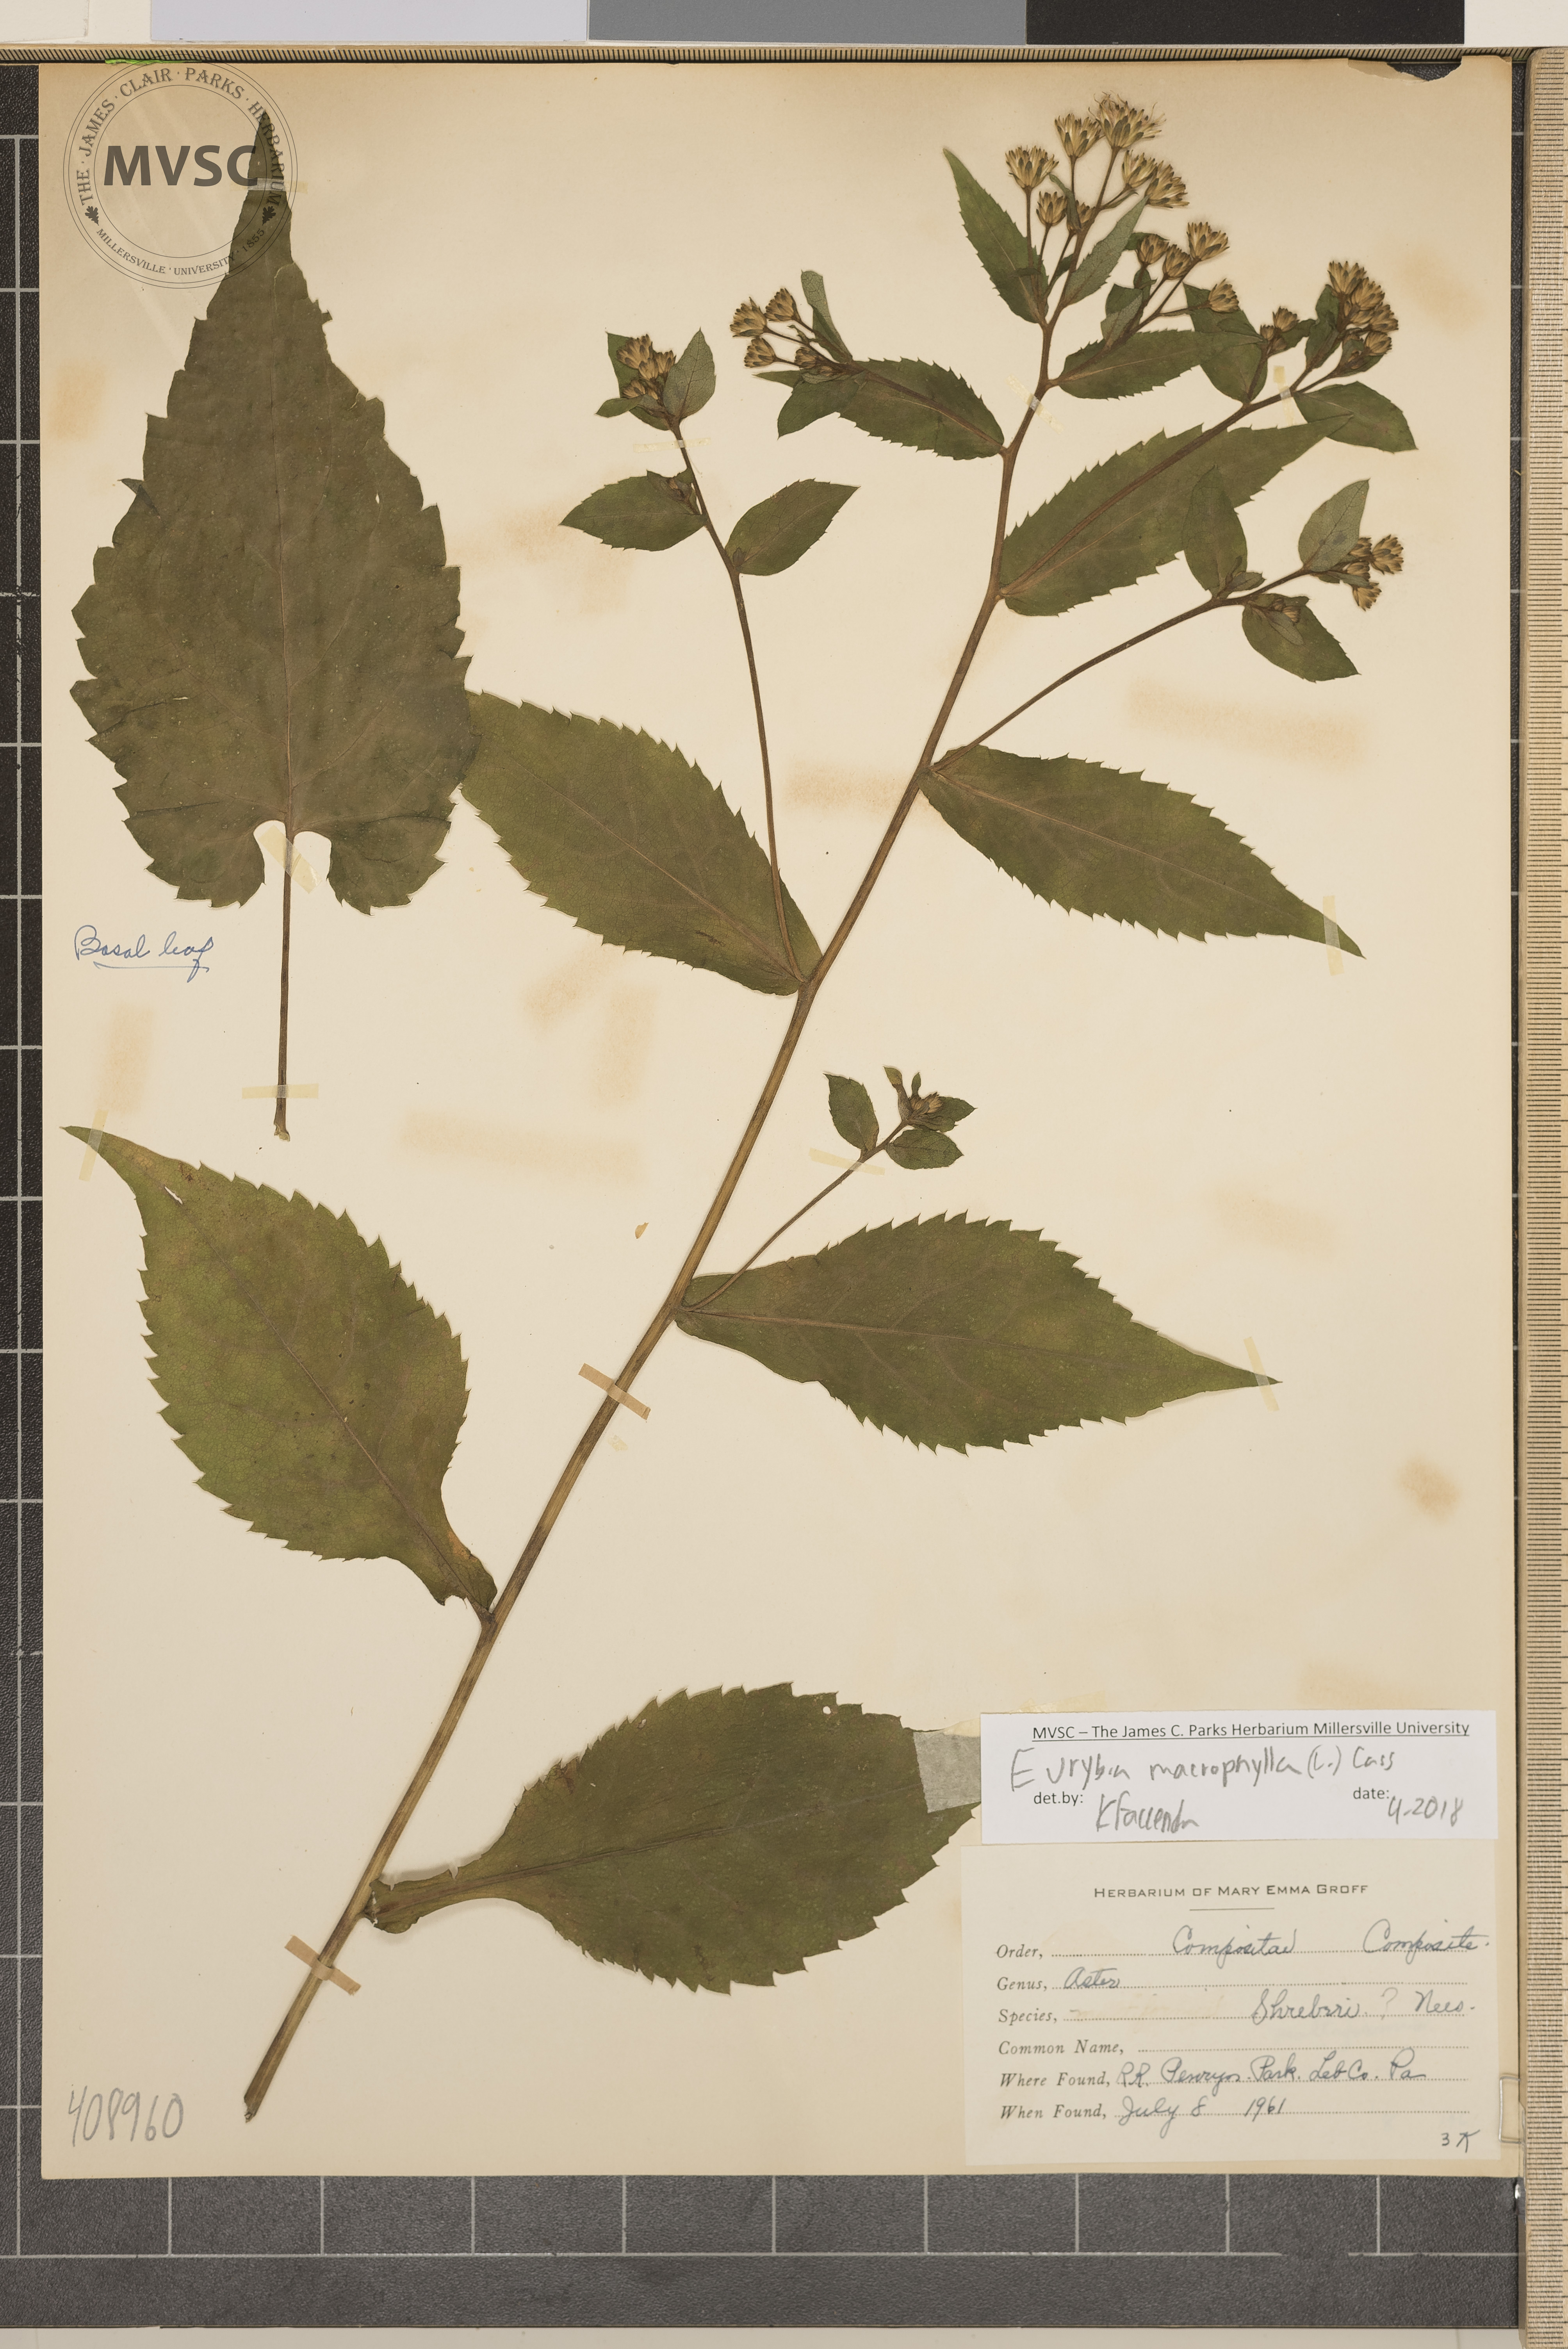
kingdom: Plantae
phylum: Tracheophyta
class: Magnoliopsida
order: Asterales
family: Asteraceae
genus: Eurybia
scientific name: Eurybia macrophylla
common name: Big-leaved aster
